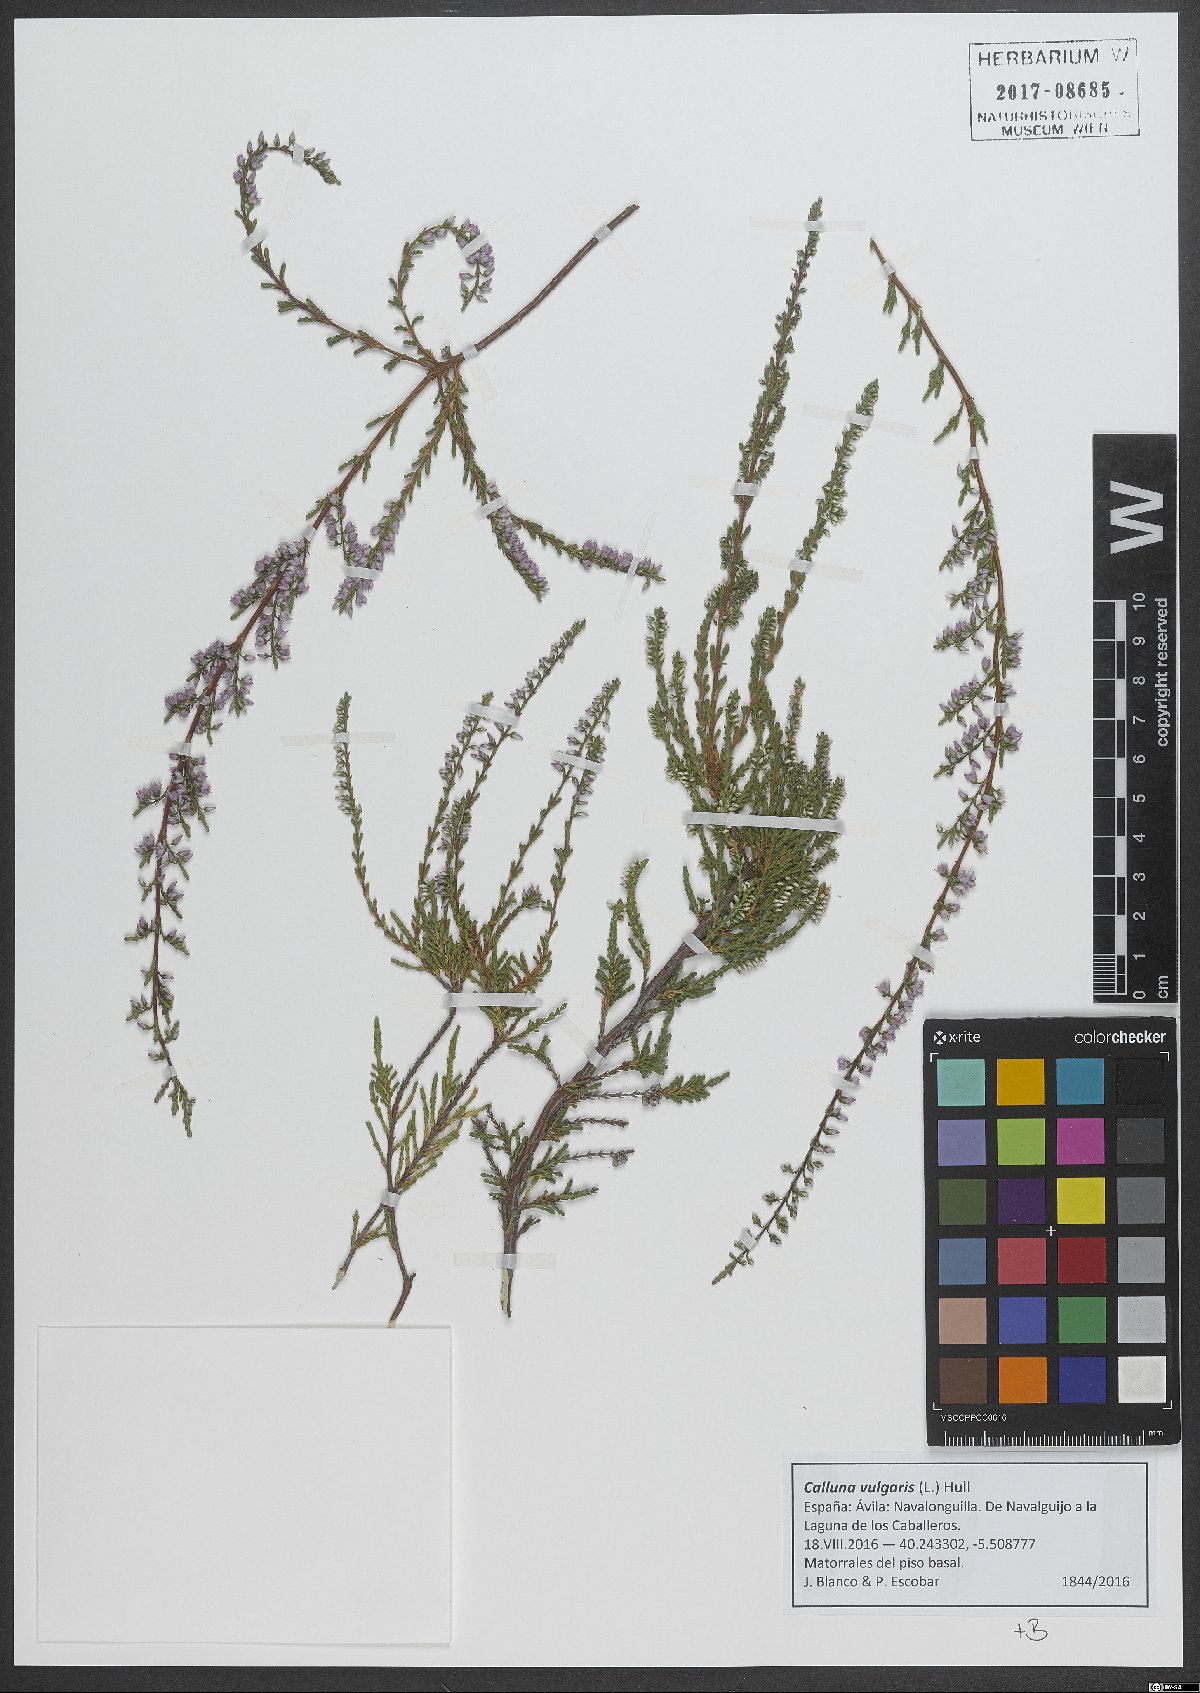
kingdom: Plantae
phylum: Tracheophyta
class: Magnoliopsida
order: Ericales
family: Ericaceae
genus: Calluna
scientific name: Calluna vulgaris
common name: Heather
